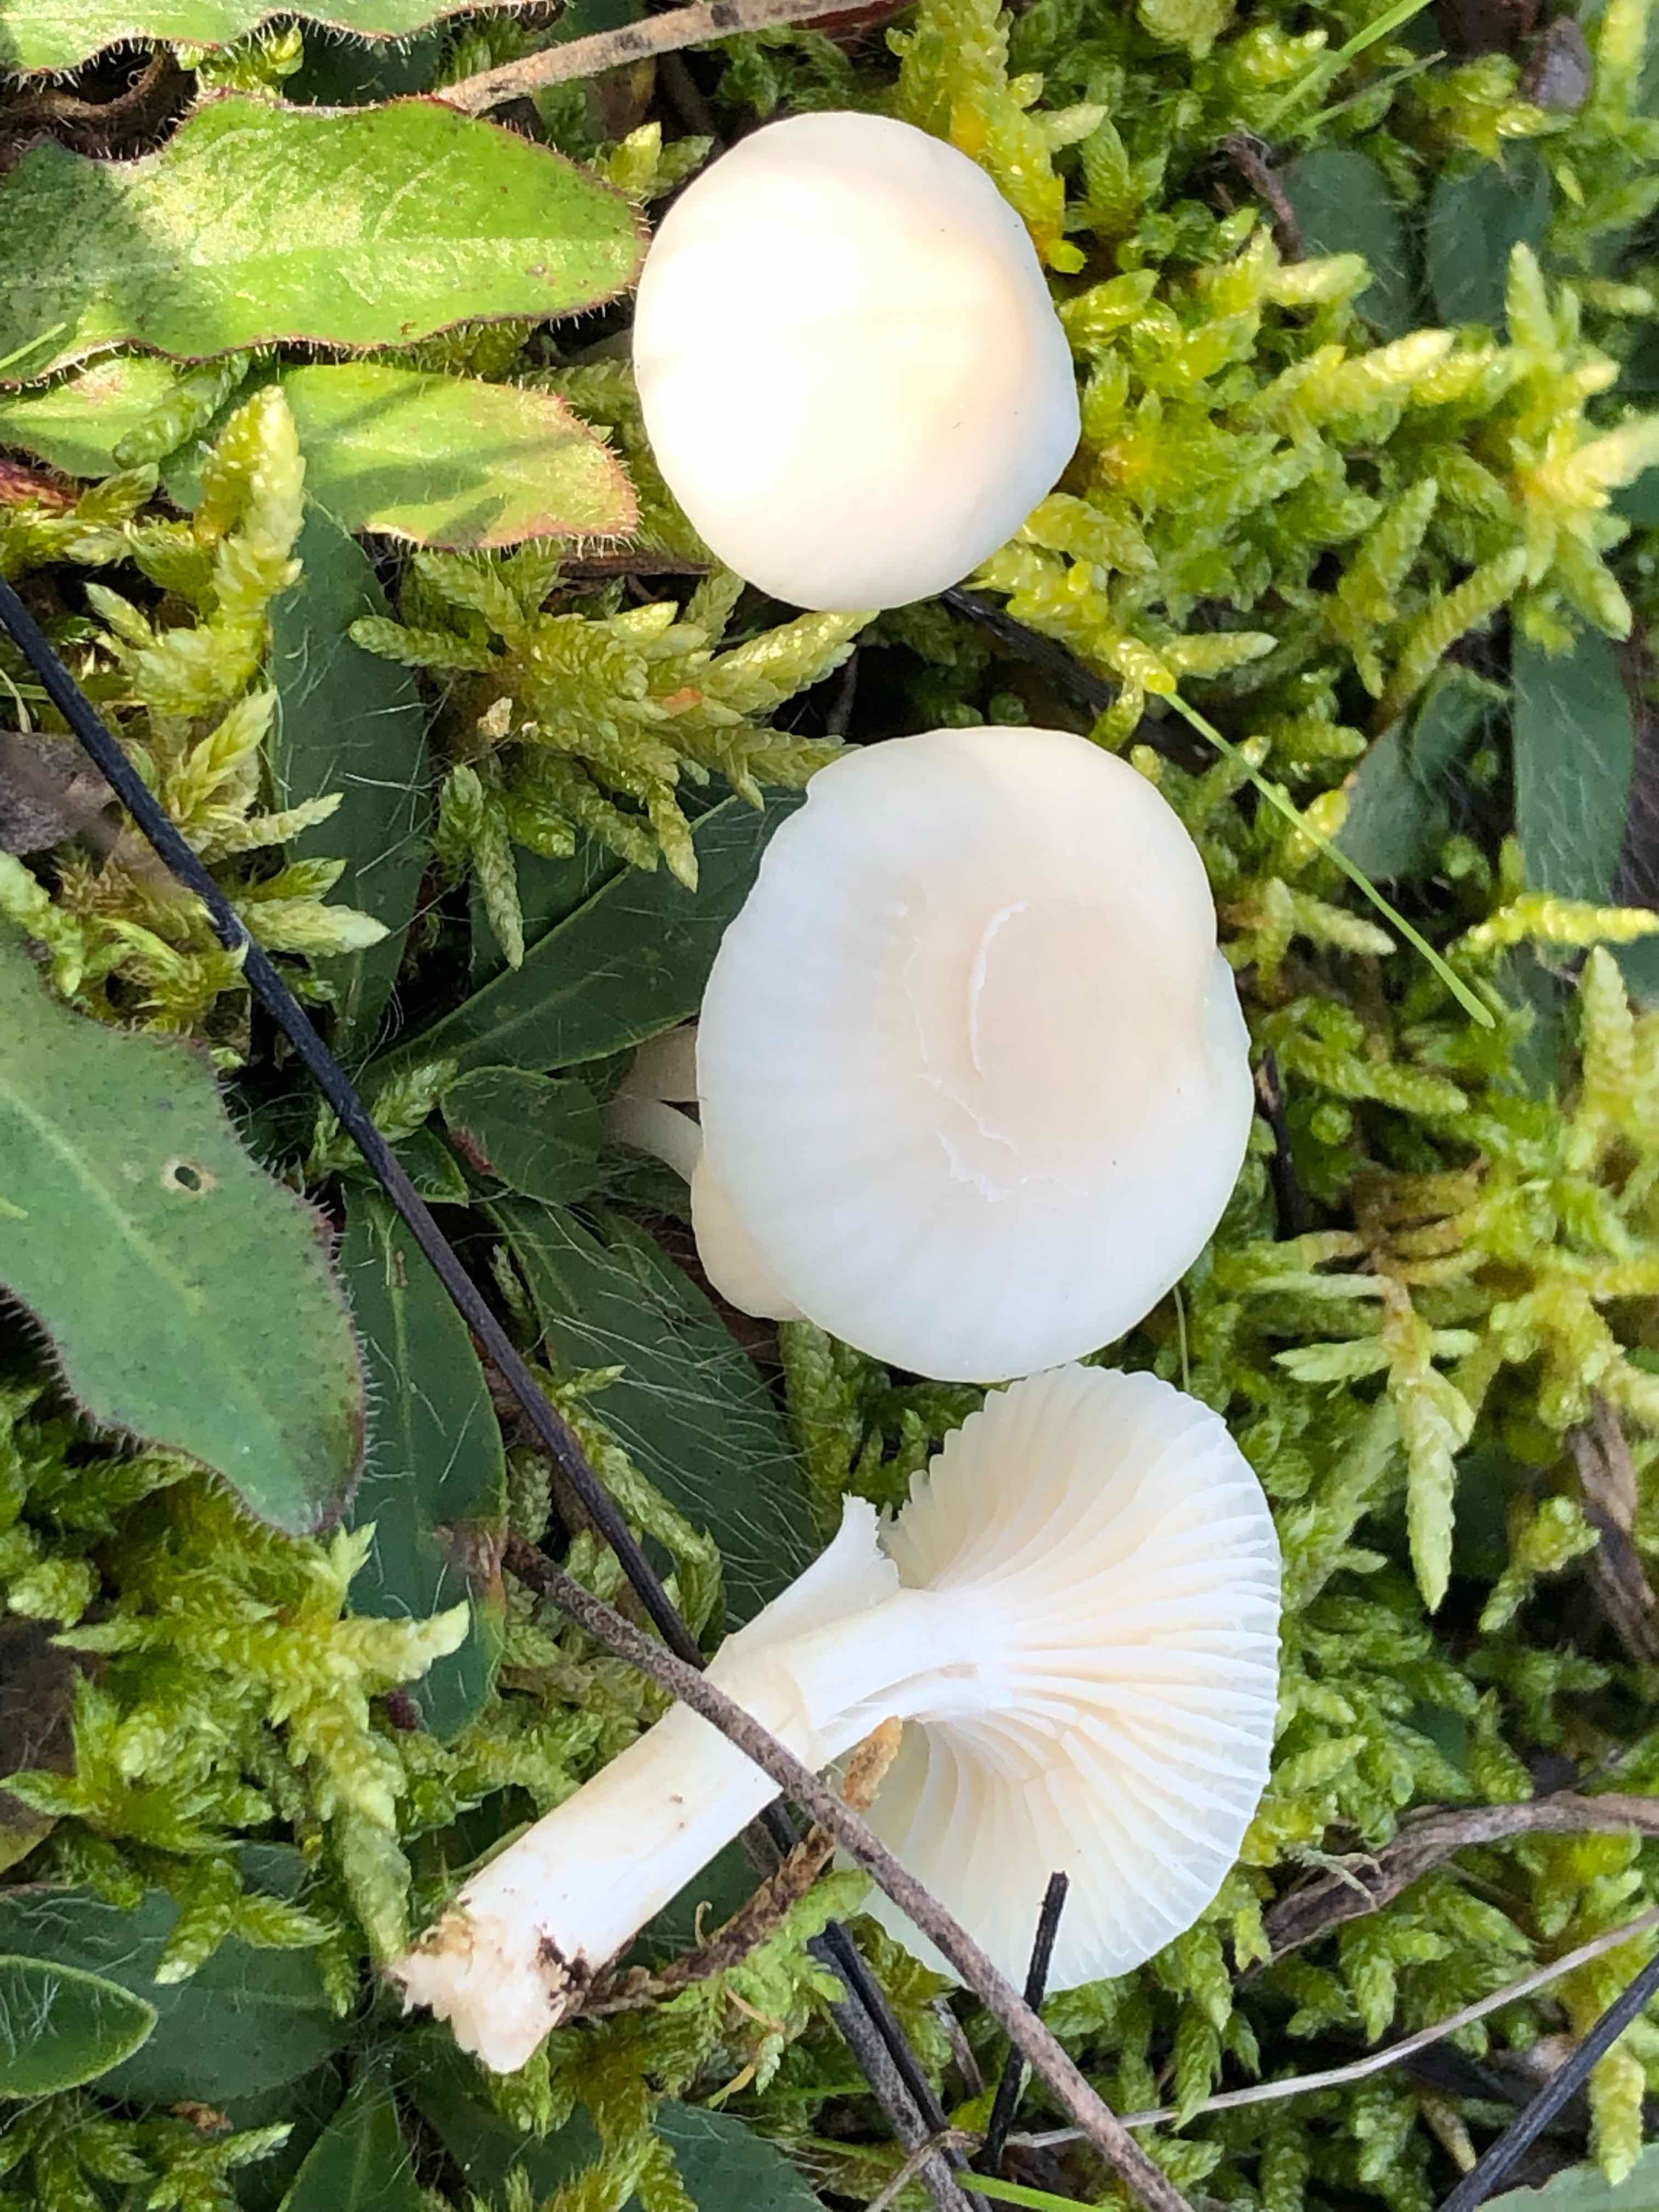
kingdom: Fungi
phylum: Basidiomycota
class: Agaricomycetes
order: Agaricales
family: Hygrophoraceae
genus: Cuphophyllus
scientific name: Cuphophyllus
